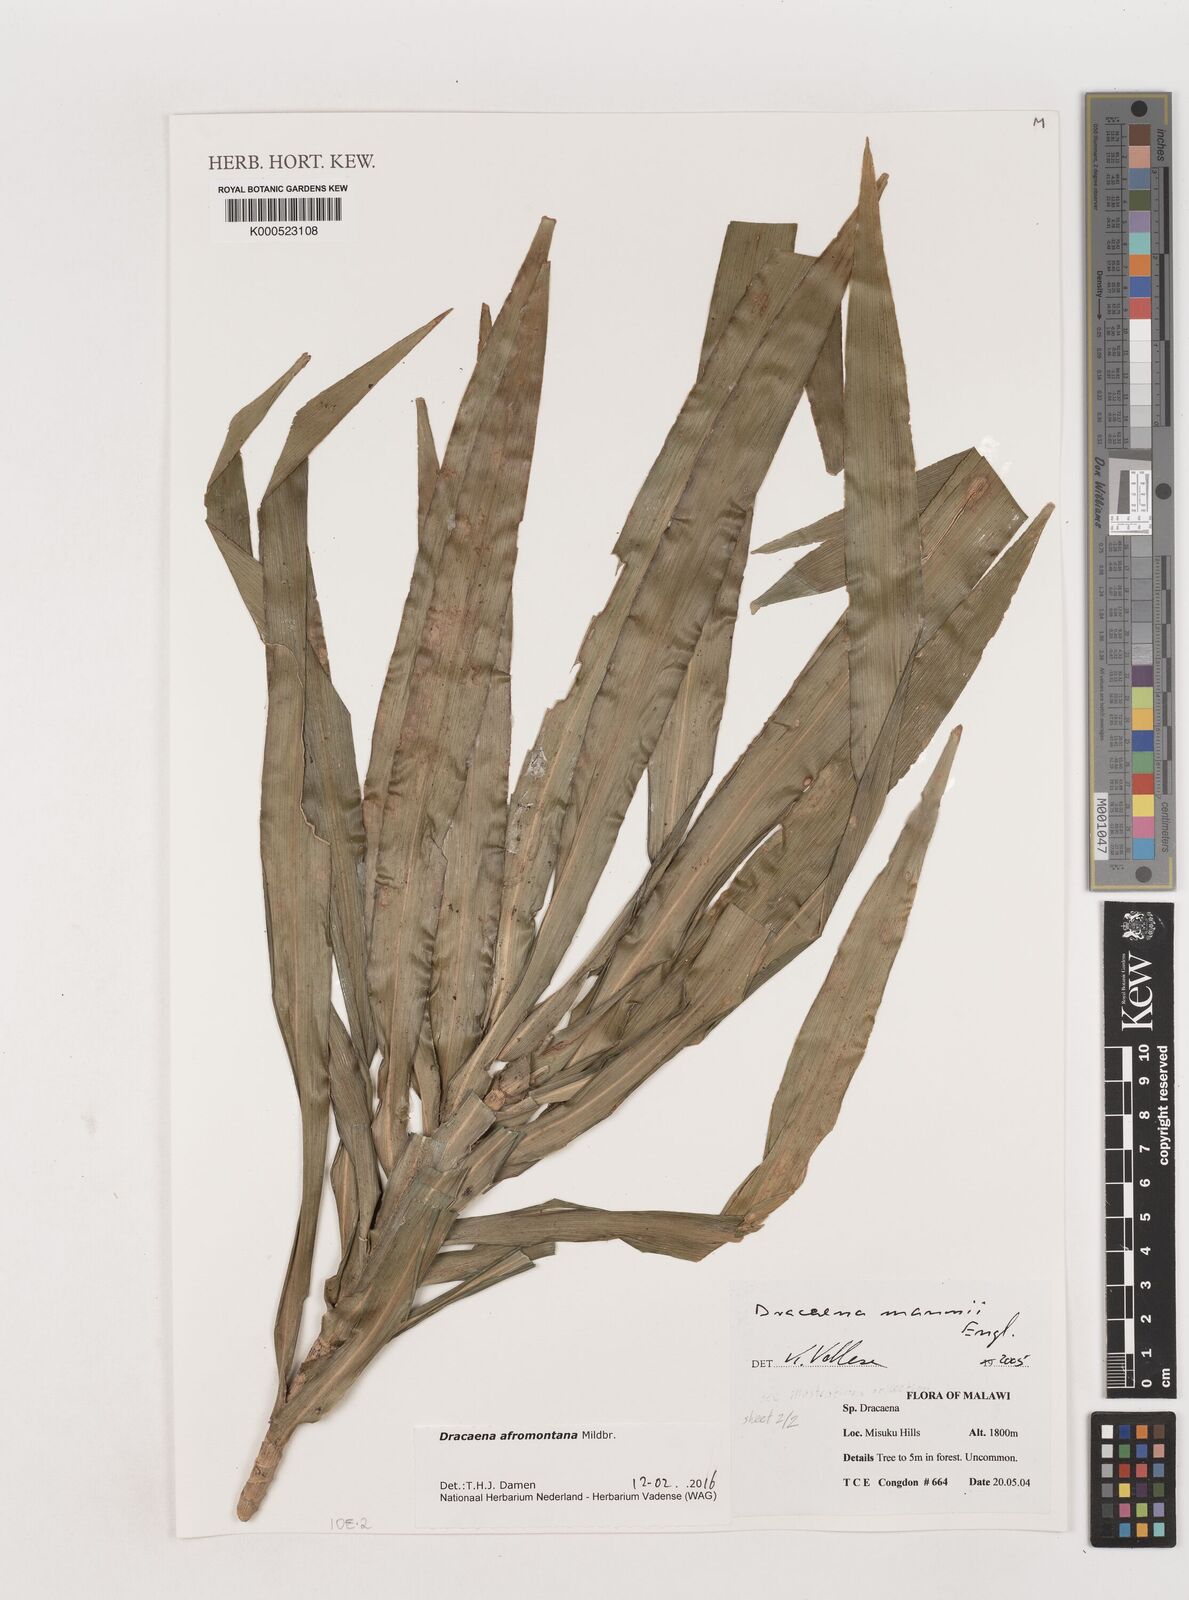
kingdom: Plantae
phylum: Tracheophyta
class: Liliopsida
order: Asparagales
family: Asparagaceae
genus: Dracaena
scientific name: Dracaena afromontana
